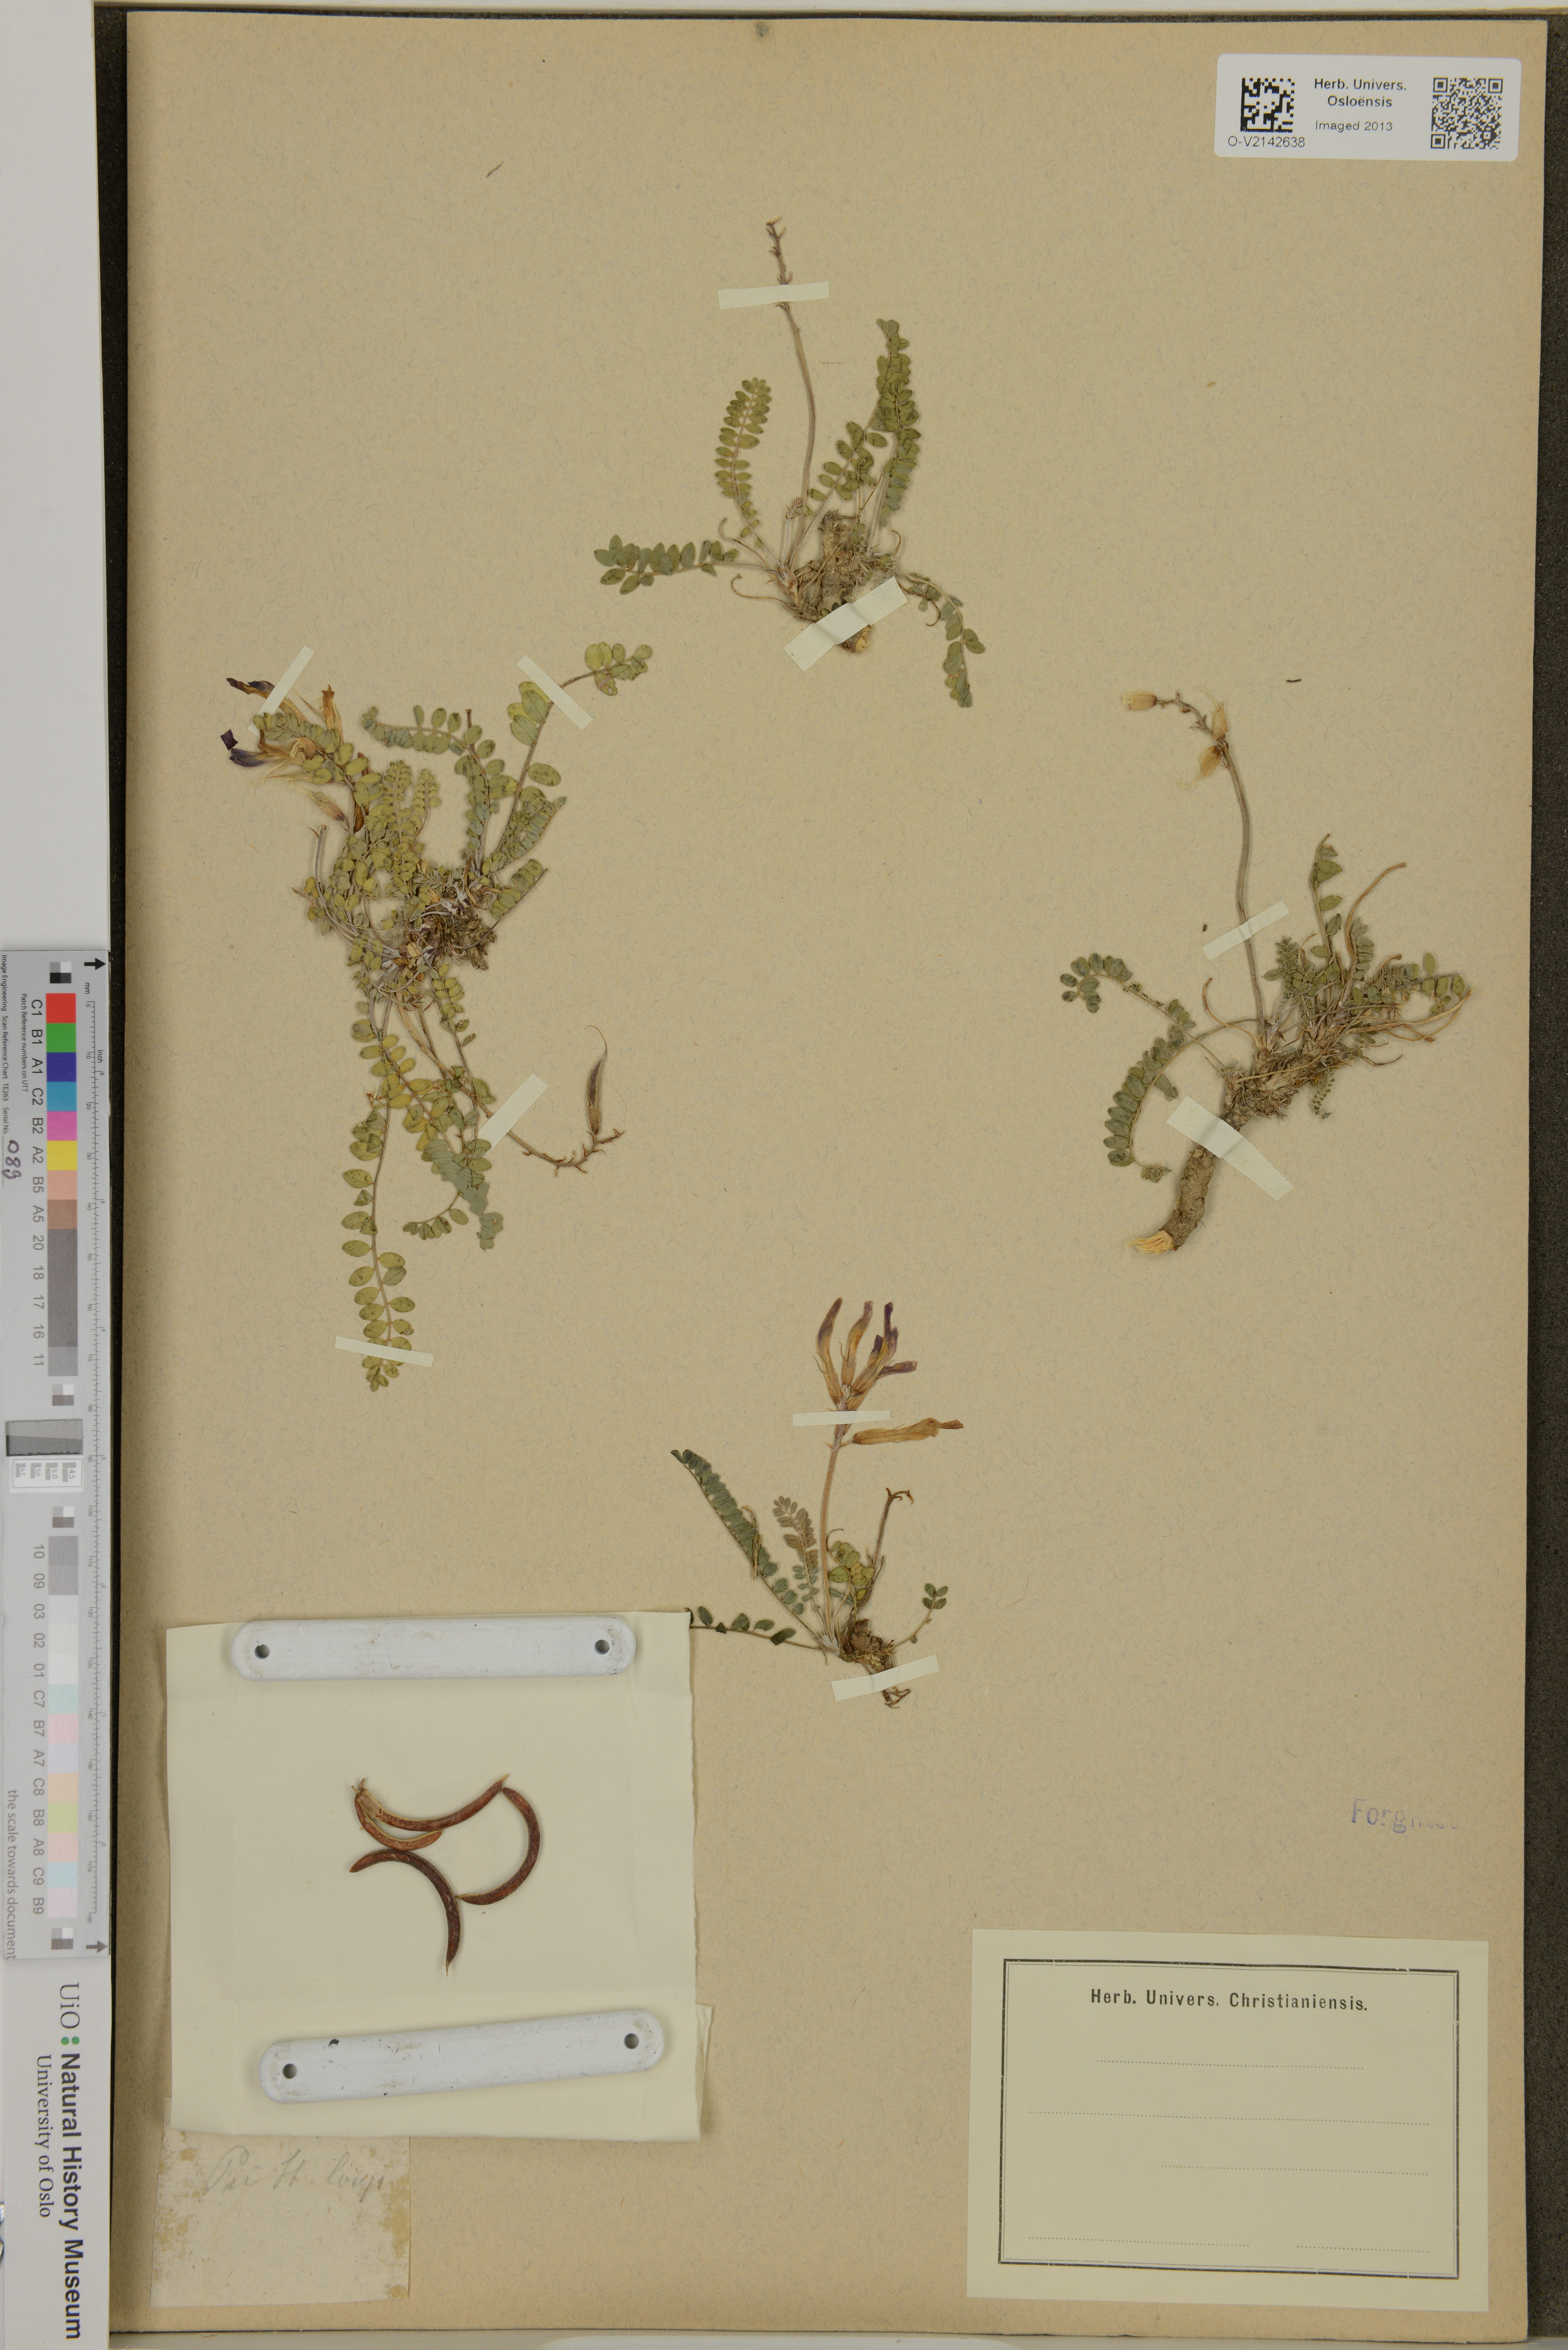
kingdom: Plantae
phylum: Tracheophyta
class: Magnoliopsida
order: Fabales
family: Fabaceae
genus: Astragalus
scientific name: Astragalus
